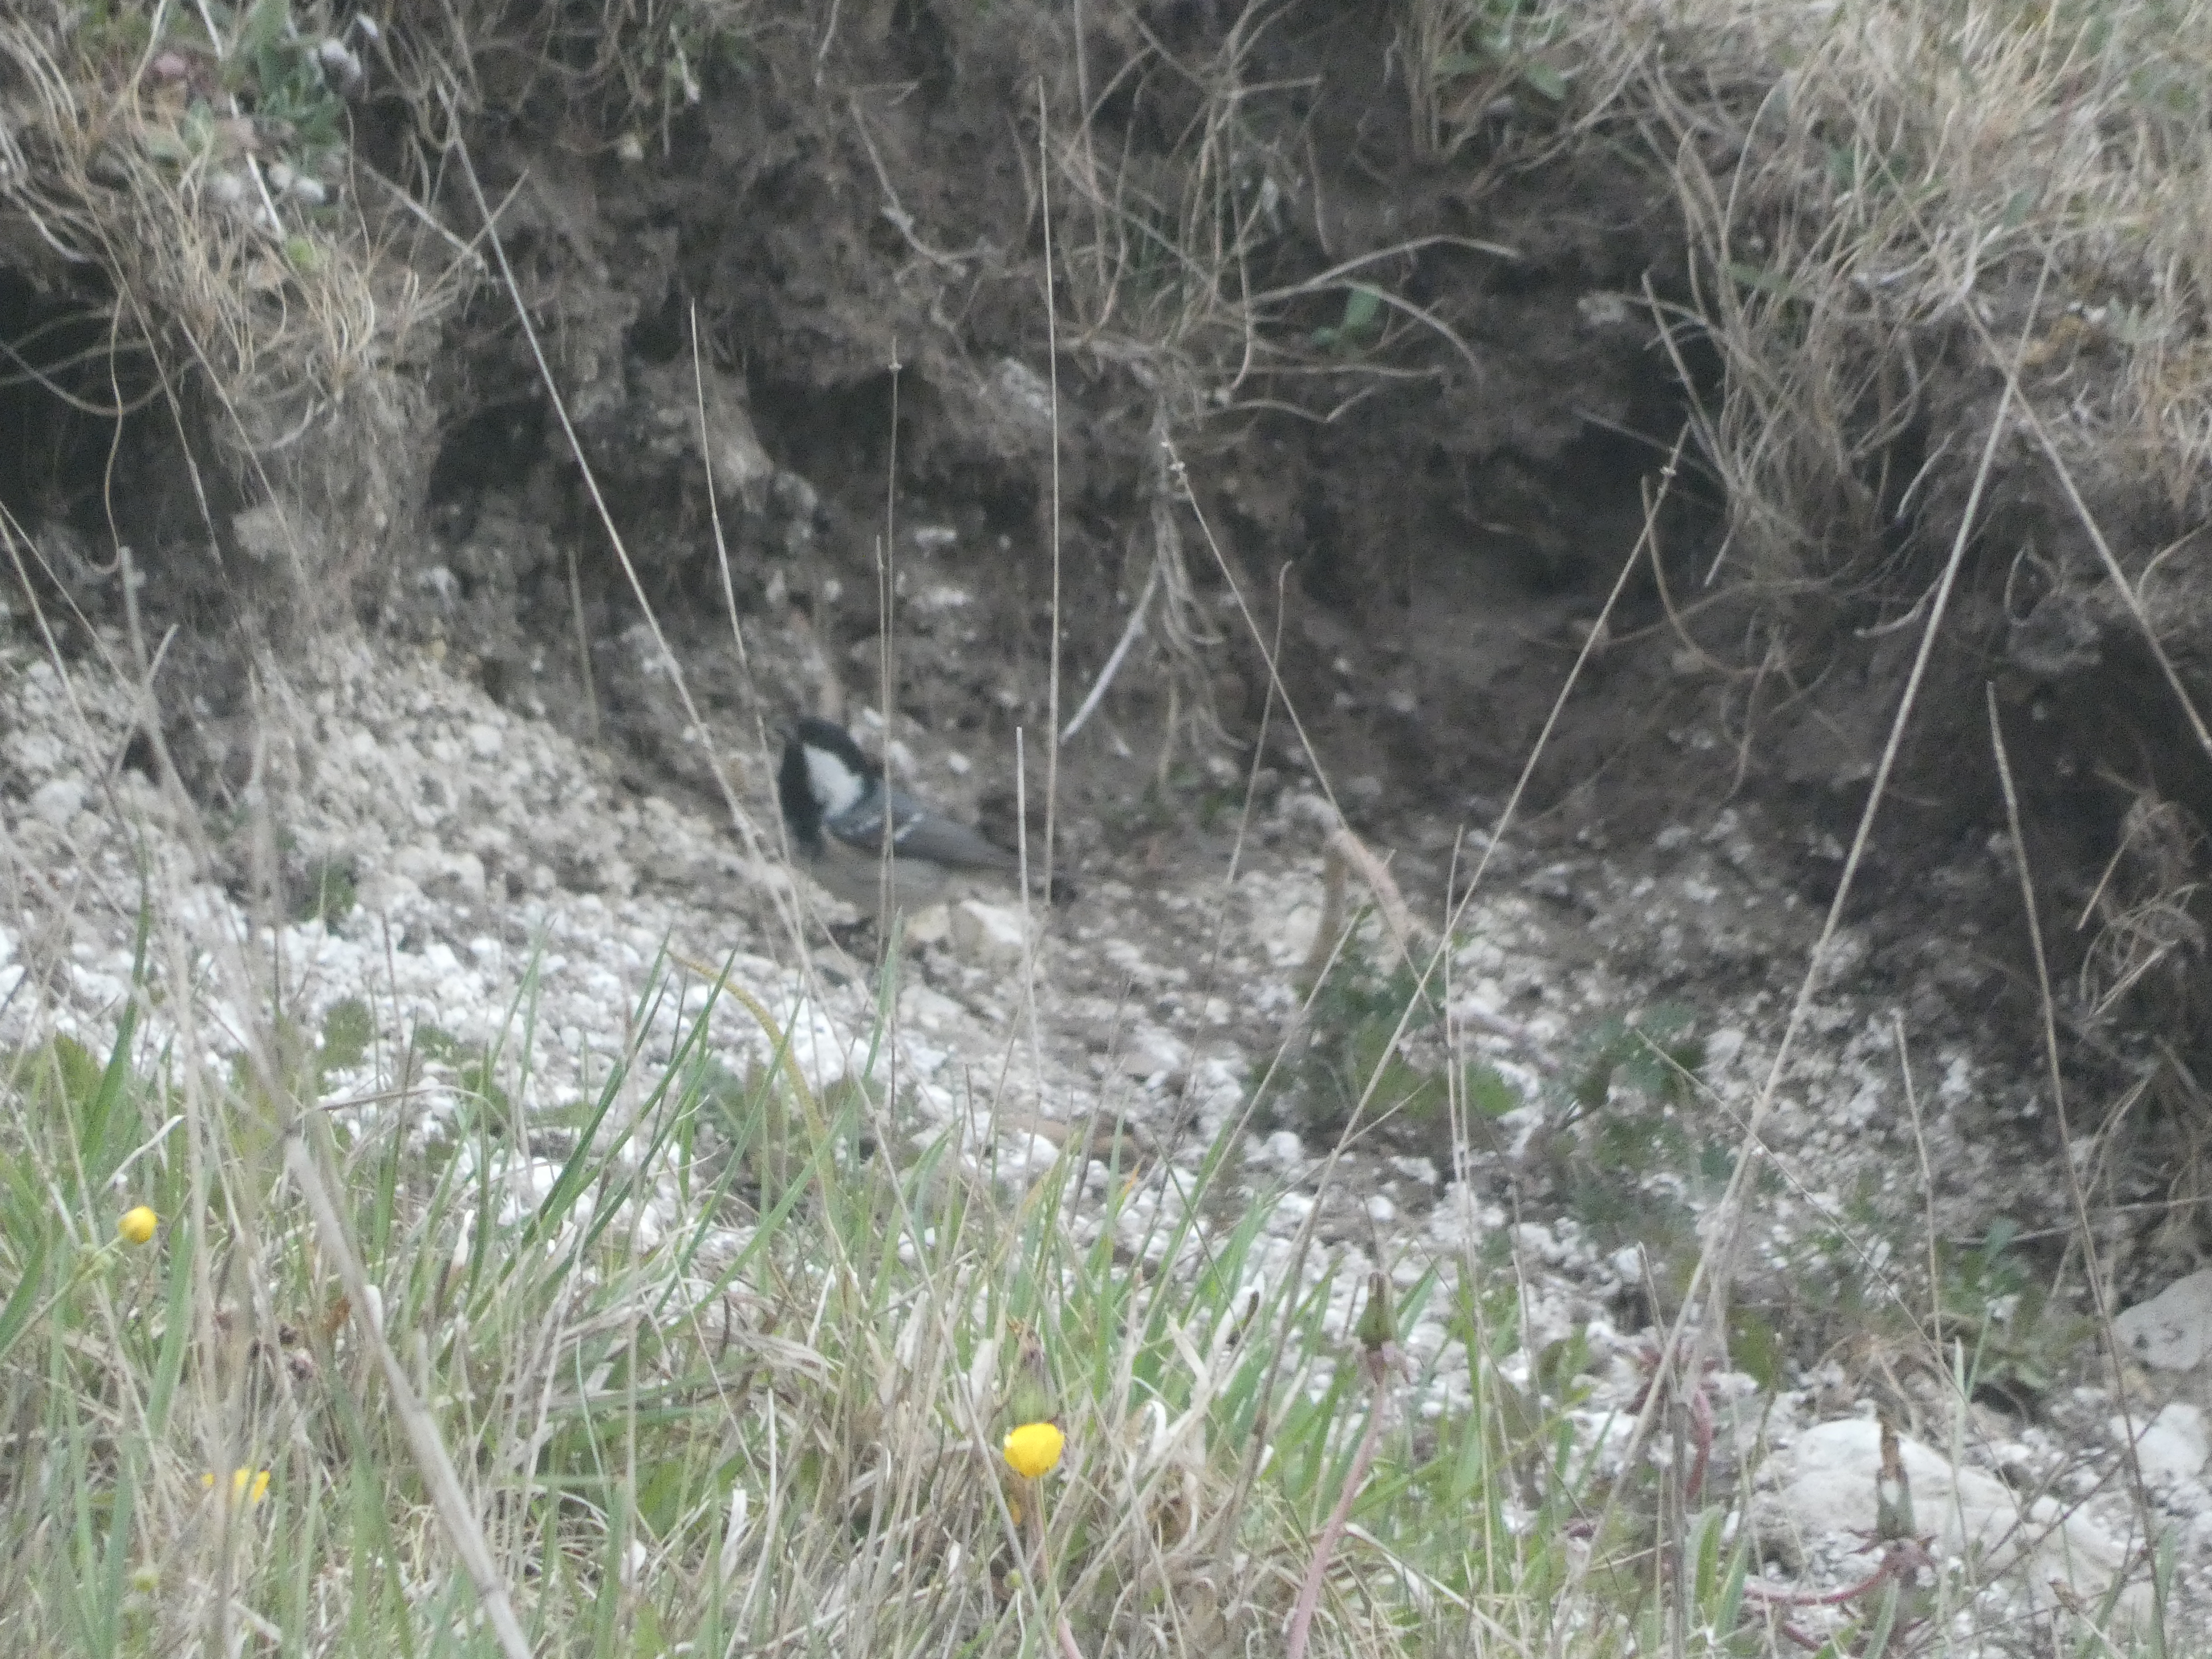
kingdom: Animalia
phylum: Chordata
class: Aves
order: Passeriformes
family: Paridae
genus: Periparus
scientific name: Periparus ater
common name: Sortmejse
